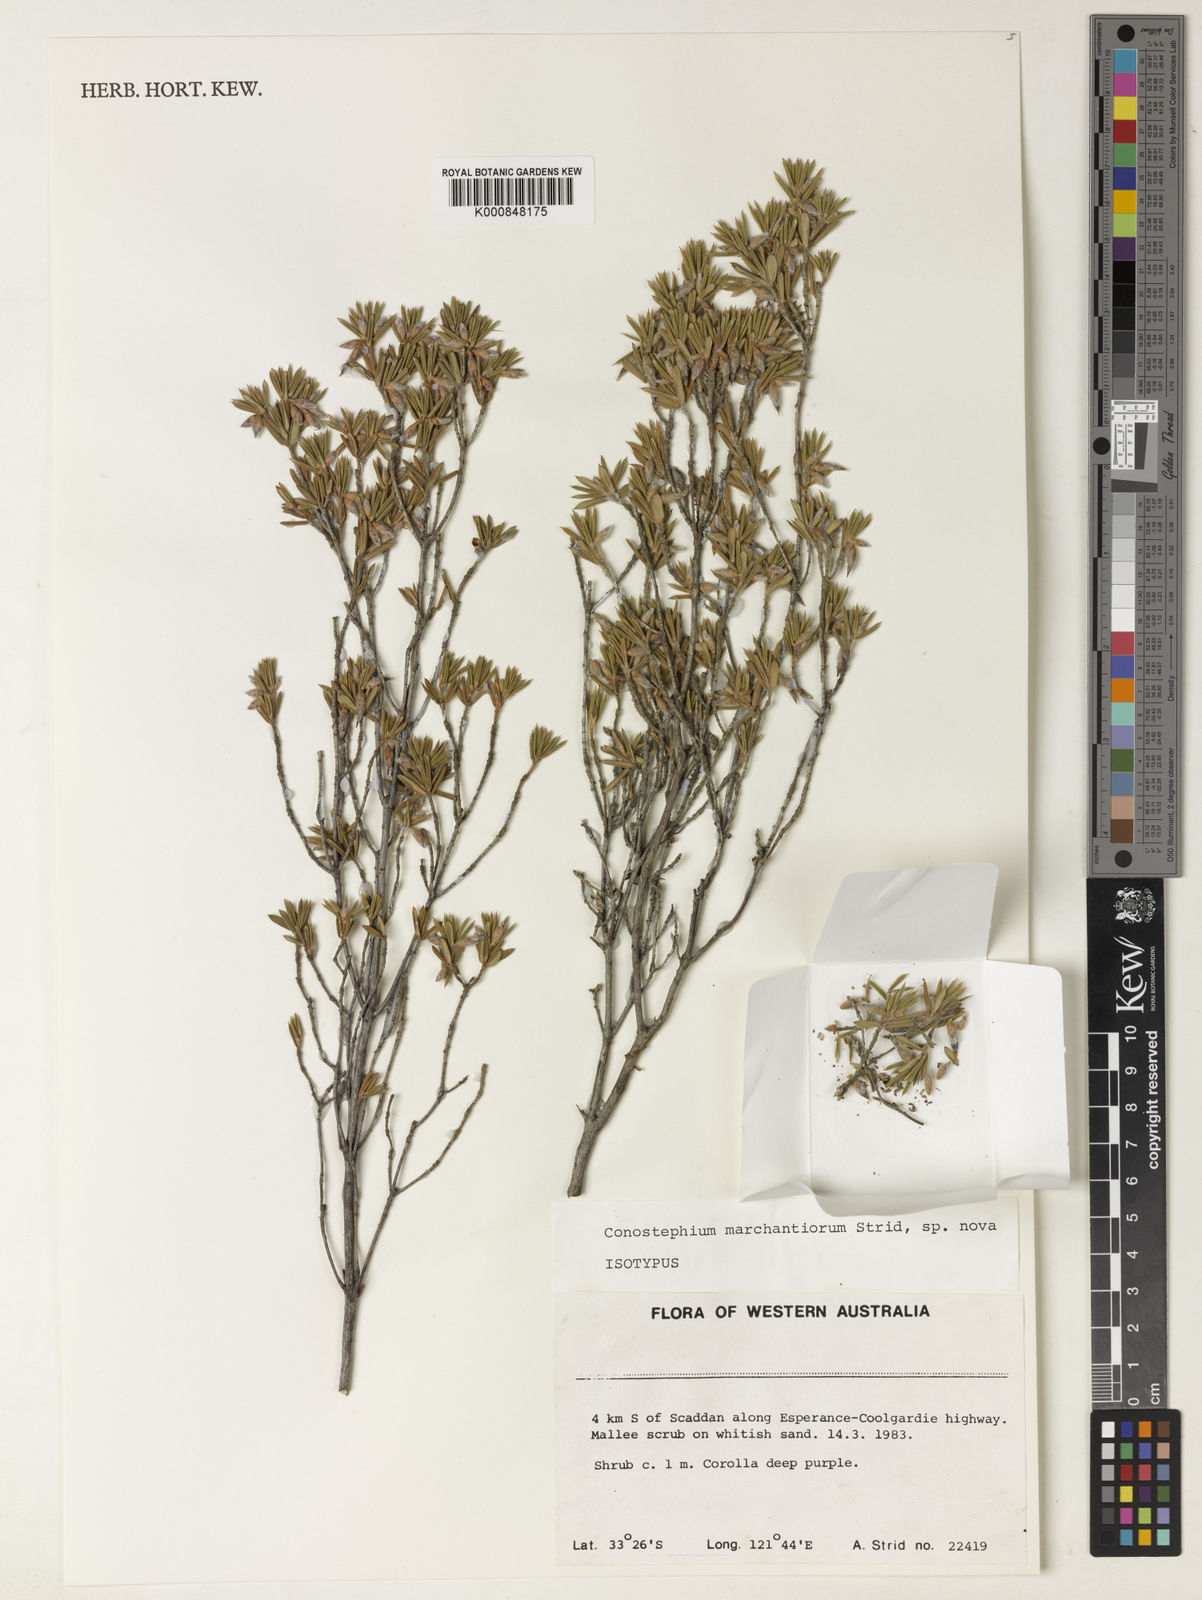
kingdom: Plantae
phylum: Tracheophyta
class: Magnoliopsida
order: Ericales
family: Ericaceae
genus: Conostephium
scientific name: Conostephium marchantiorum
